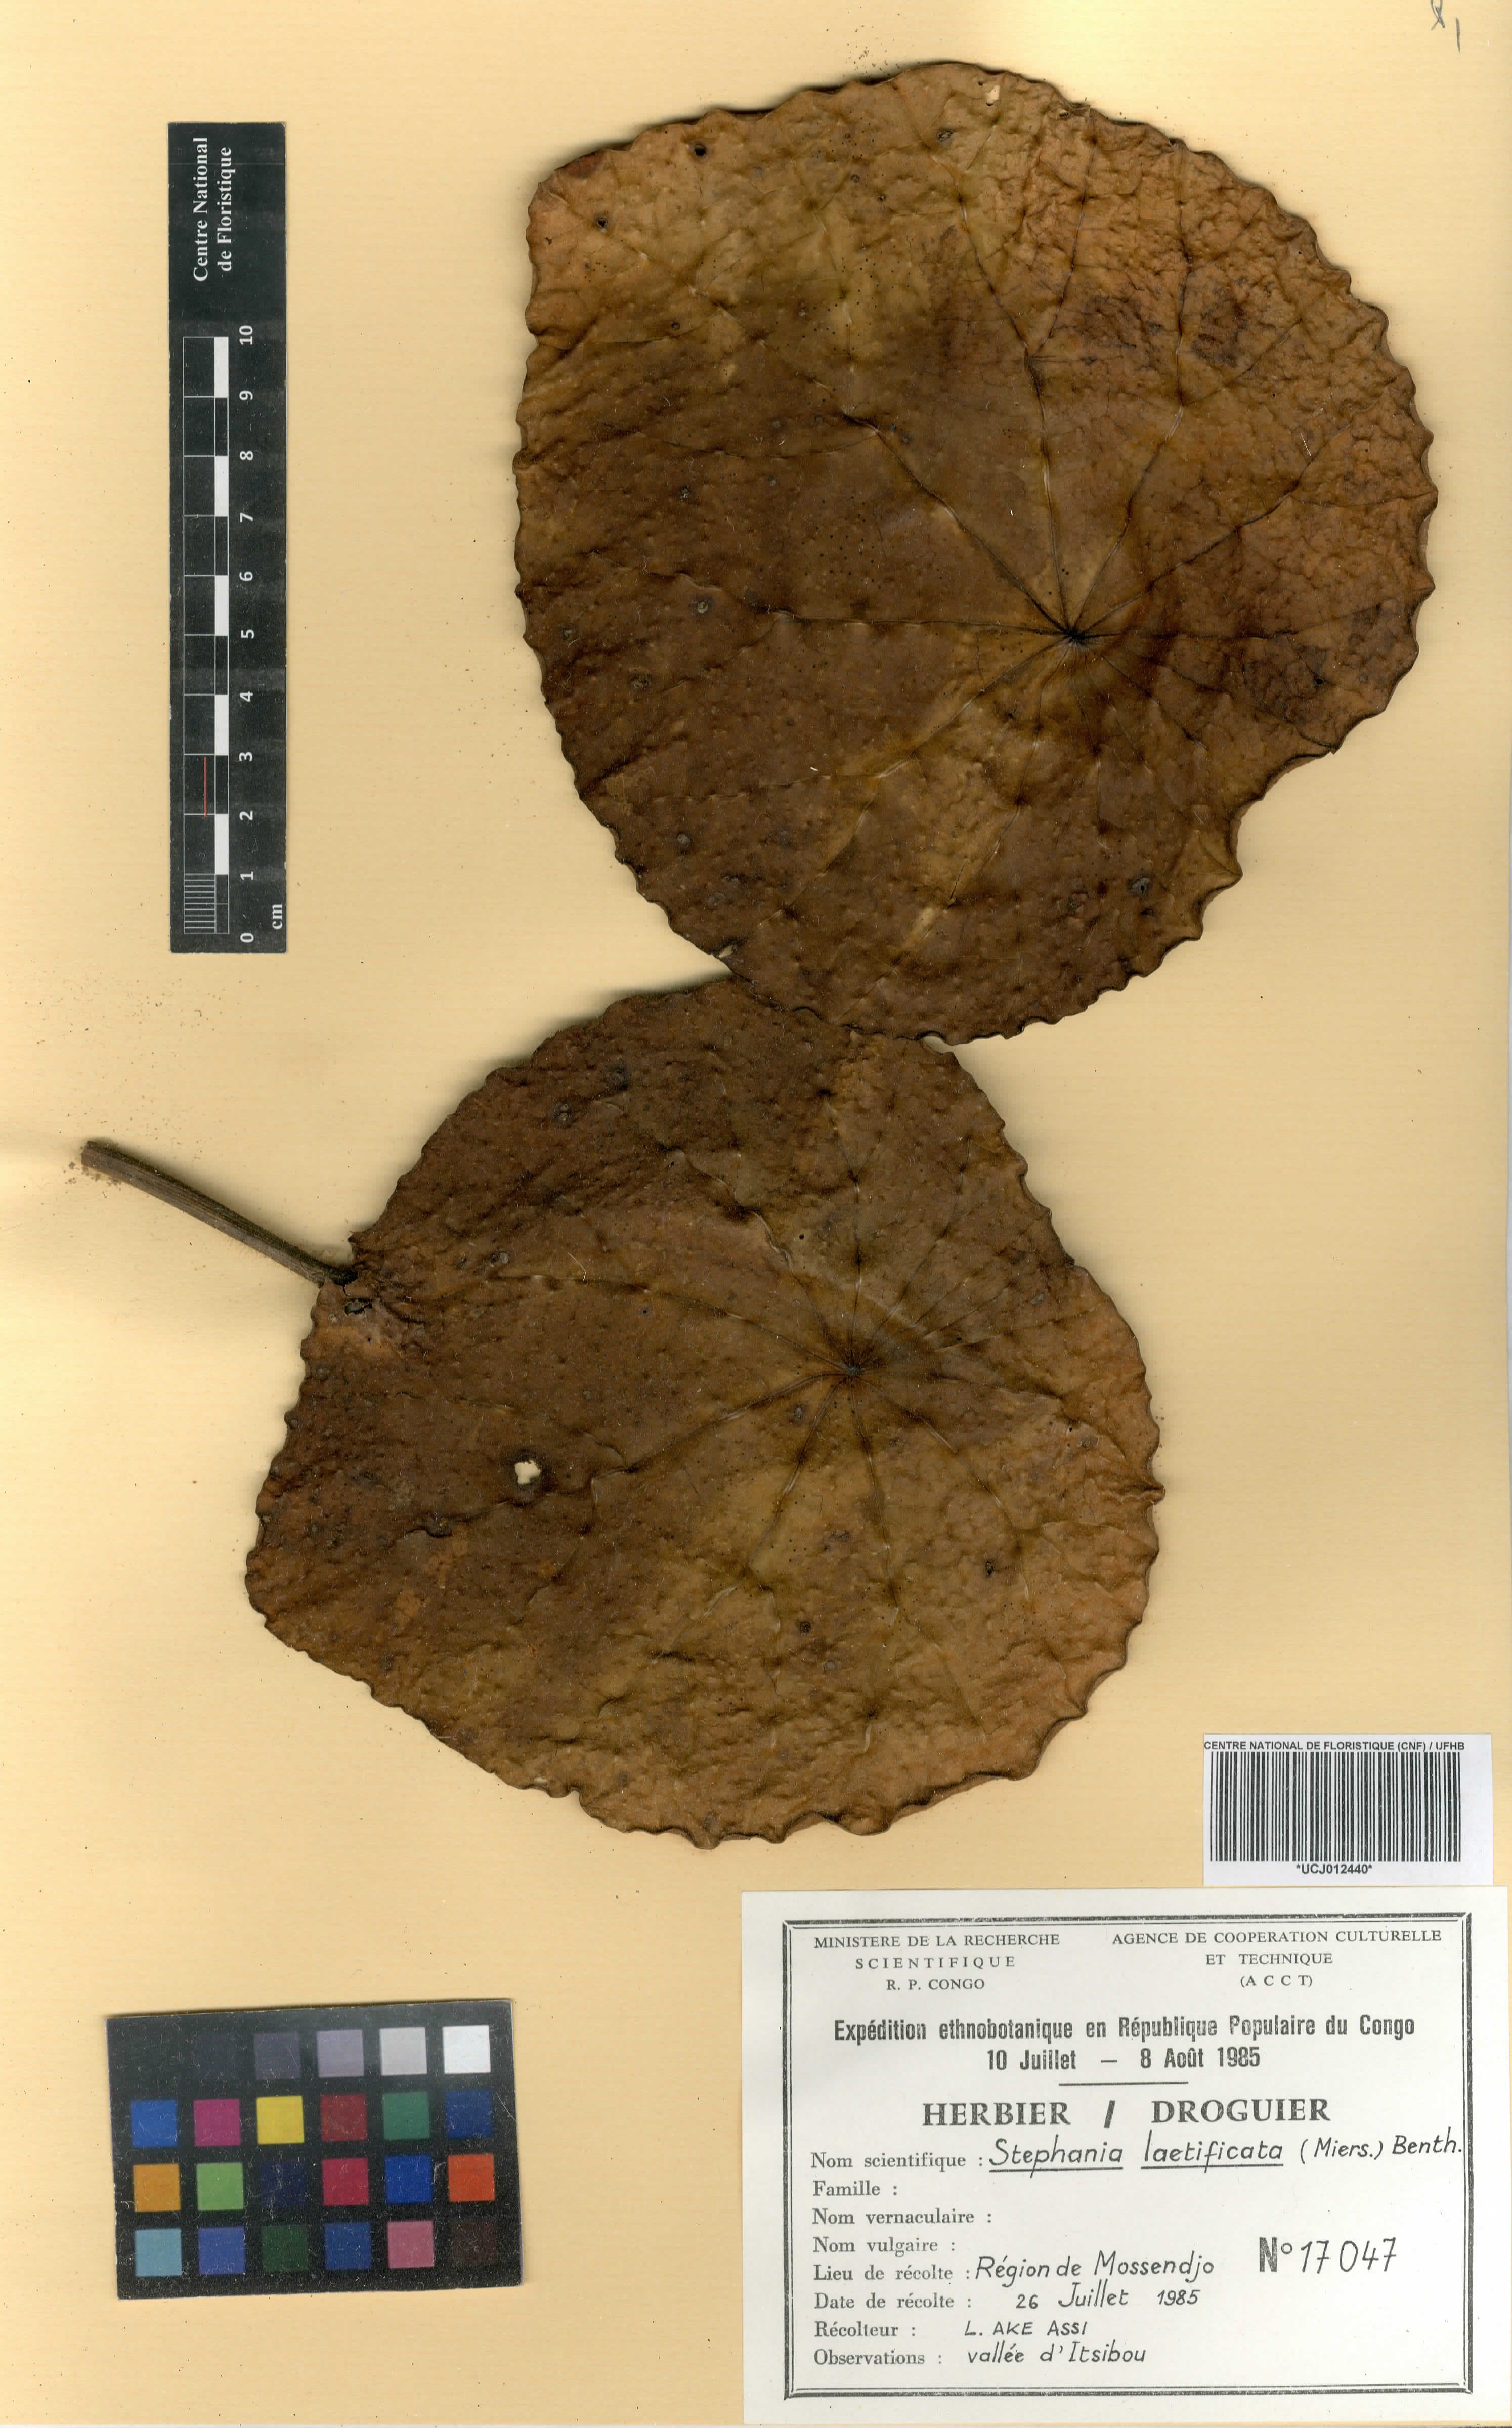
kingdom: Plantae
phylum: Tracheophyta
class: Magnoliopsida
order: Ranunculales
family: Menispermaceae
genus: Perichasma
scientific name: Perichasma laetificata
